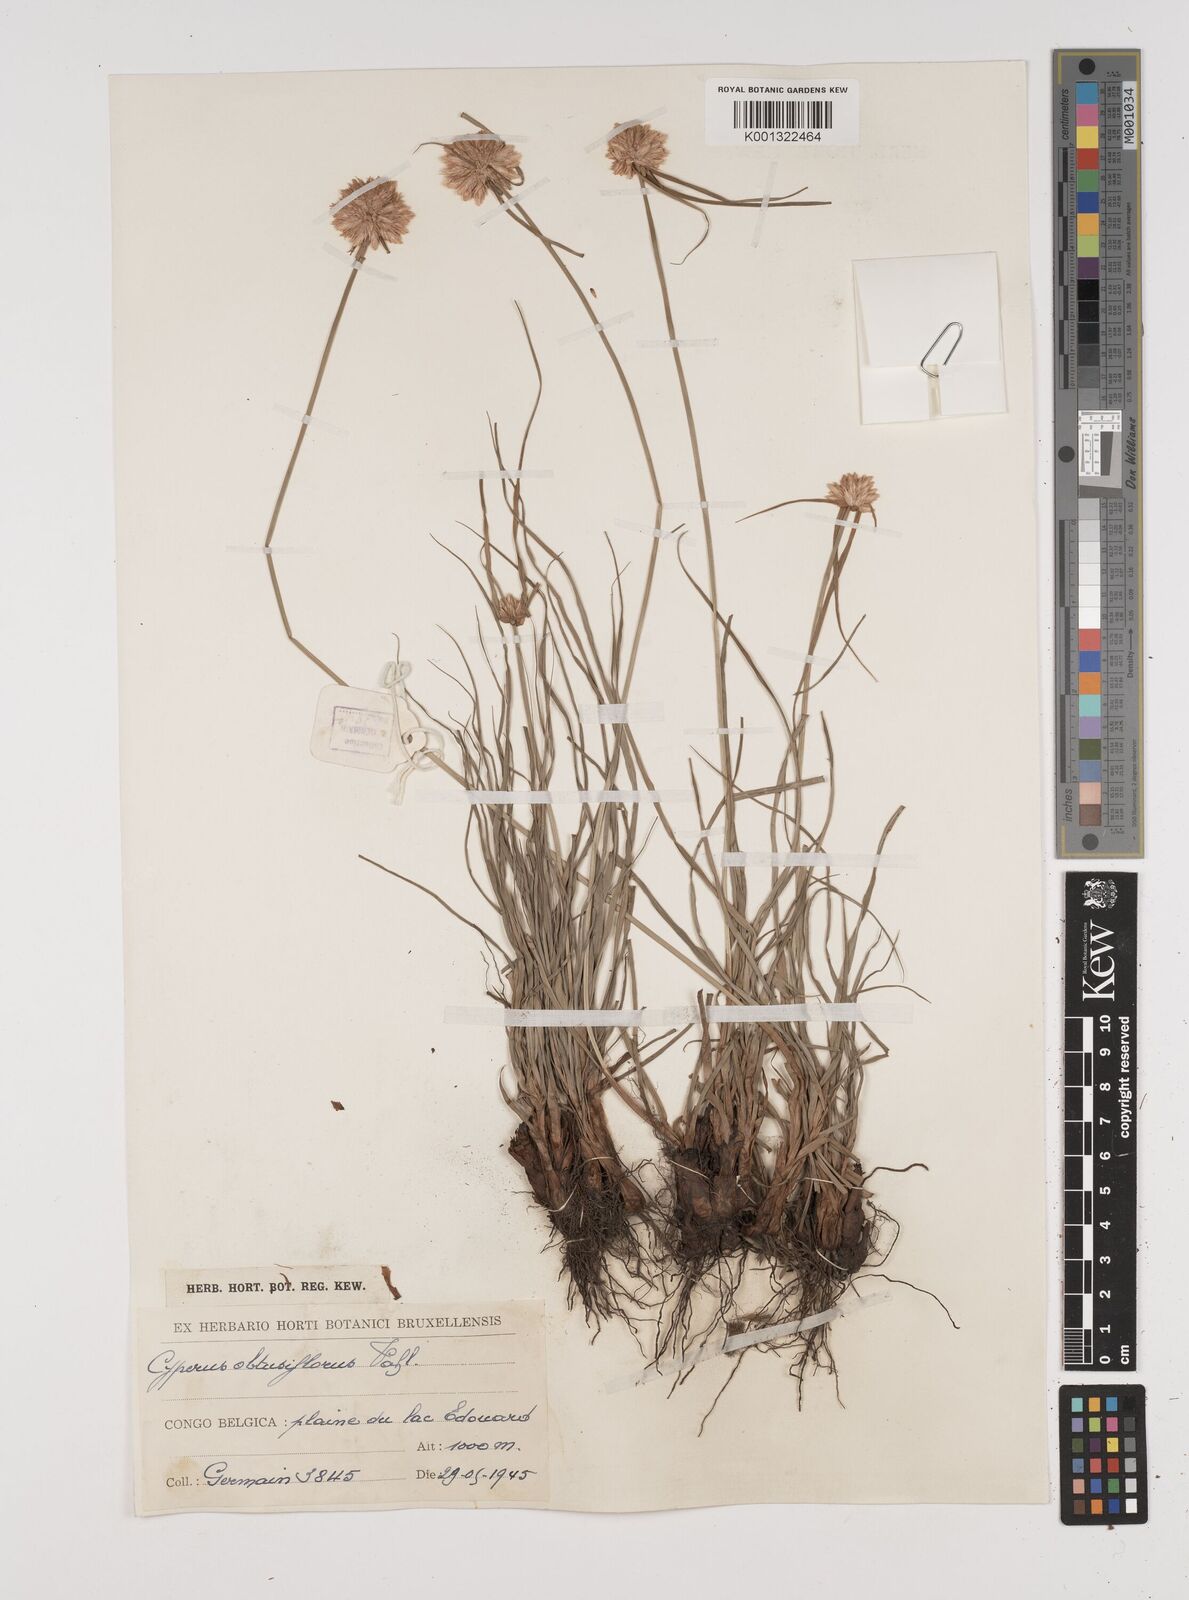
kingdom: Plantae
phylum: Tracheophyta
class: Liliopsida
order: Poales
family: Cyperaceae
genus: Cyperus
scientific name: Cyperus niveus
